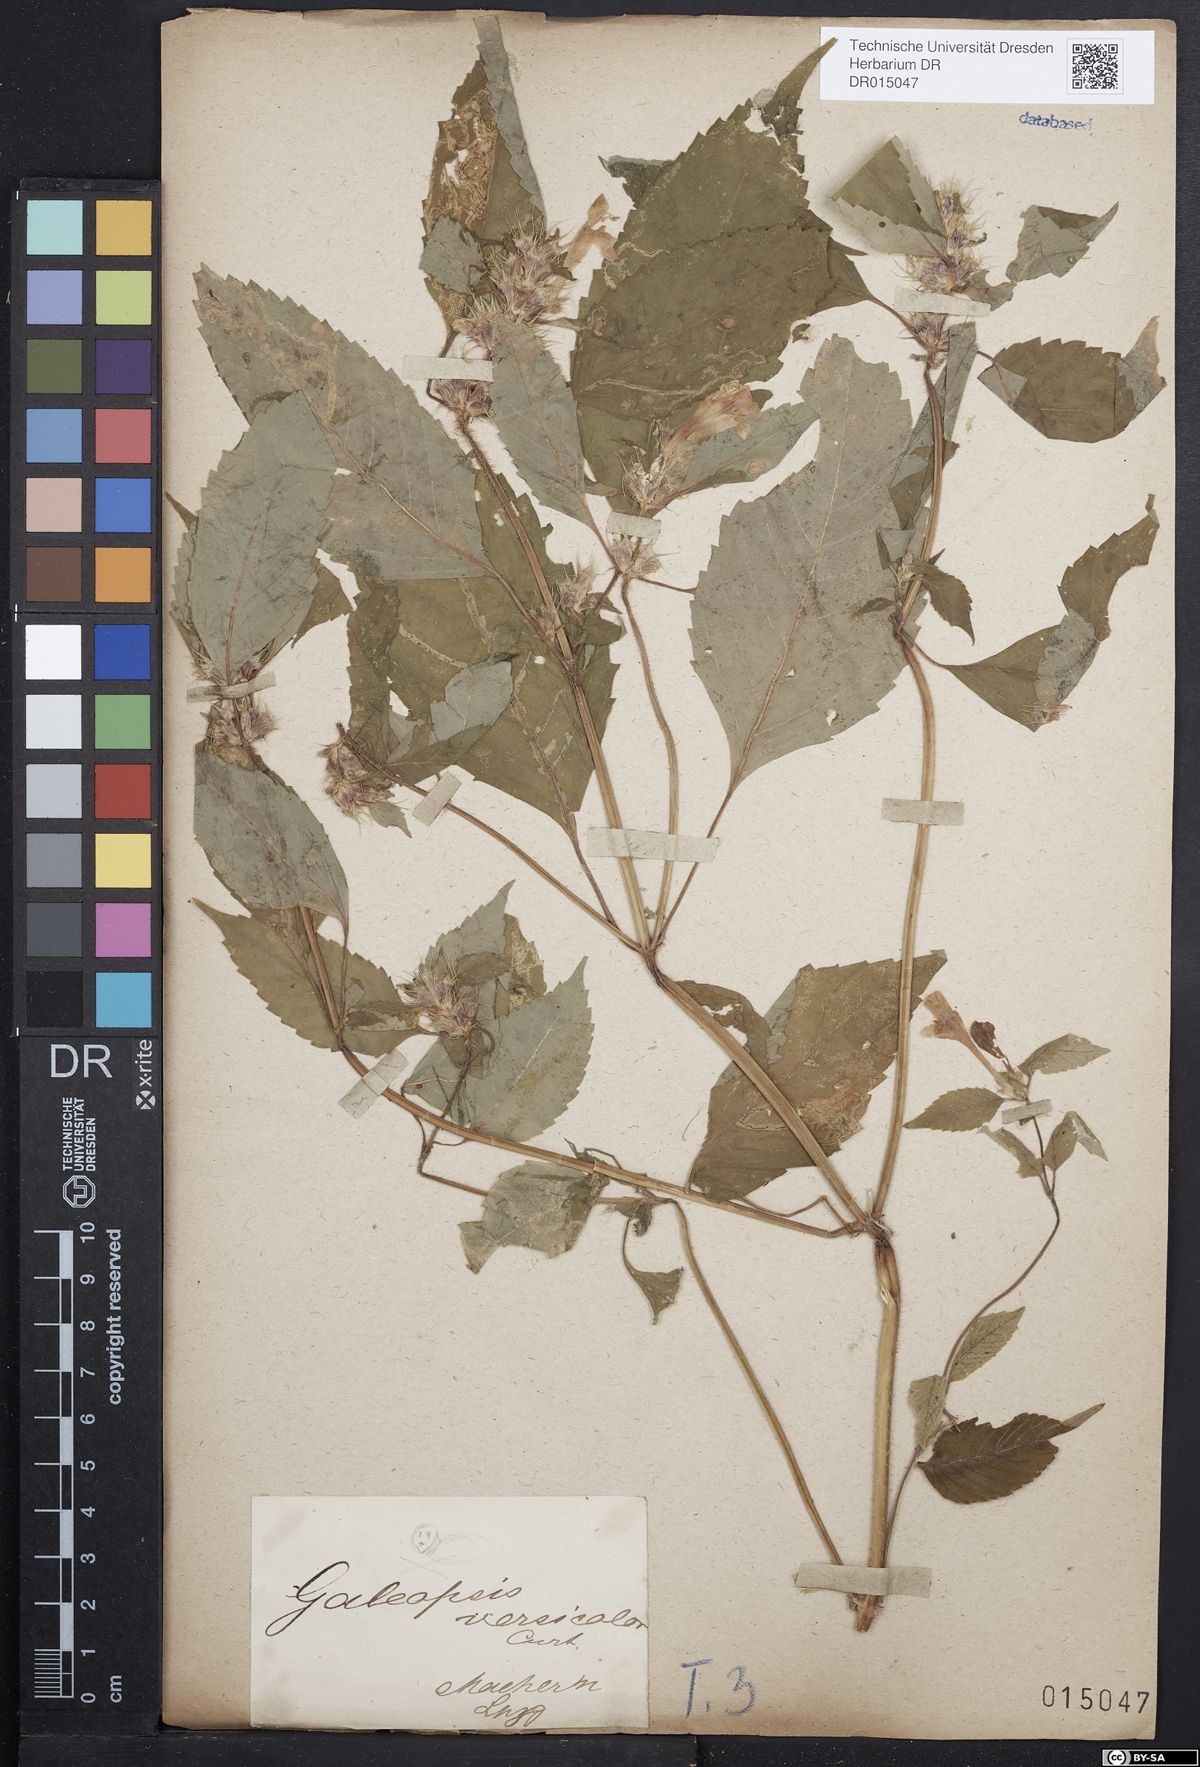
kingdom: Plantae
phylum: Tracheophyta
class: Magnoliopsida
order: Lamiales
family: Lamiaceae
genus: Galeopsis
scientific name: Galeopsis speciosa
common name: Large-flowered hemp-nettle
